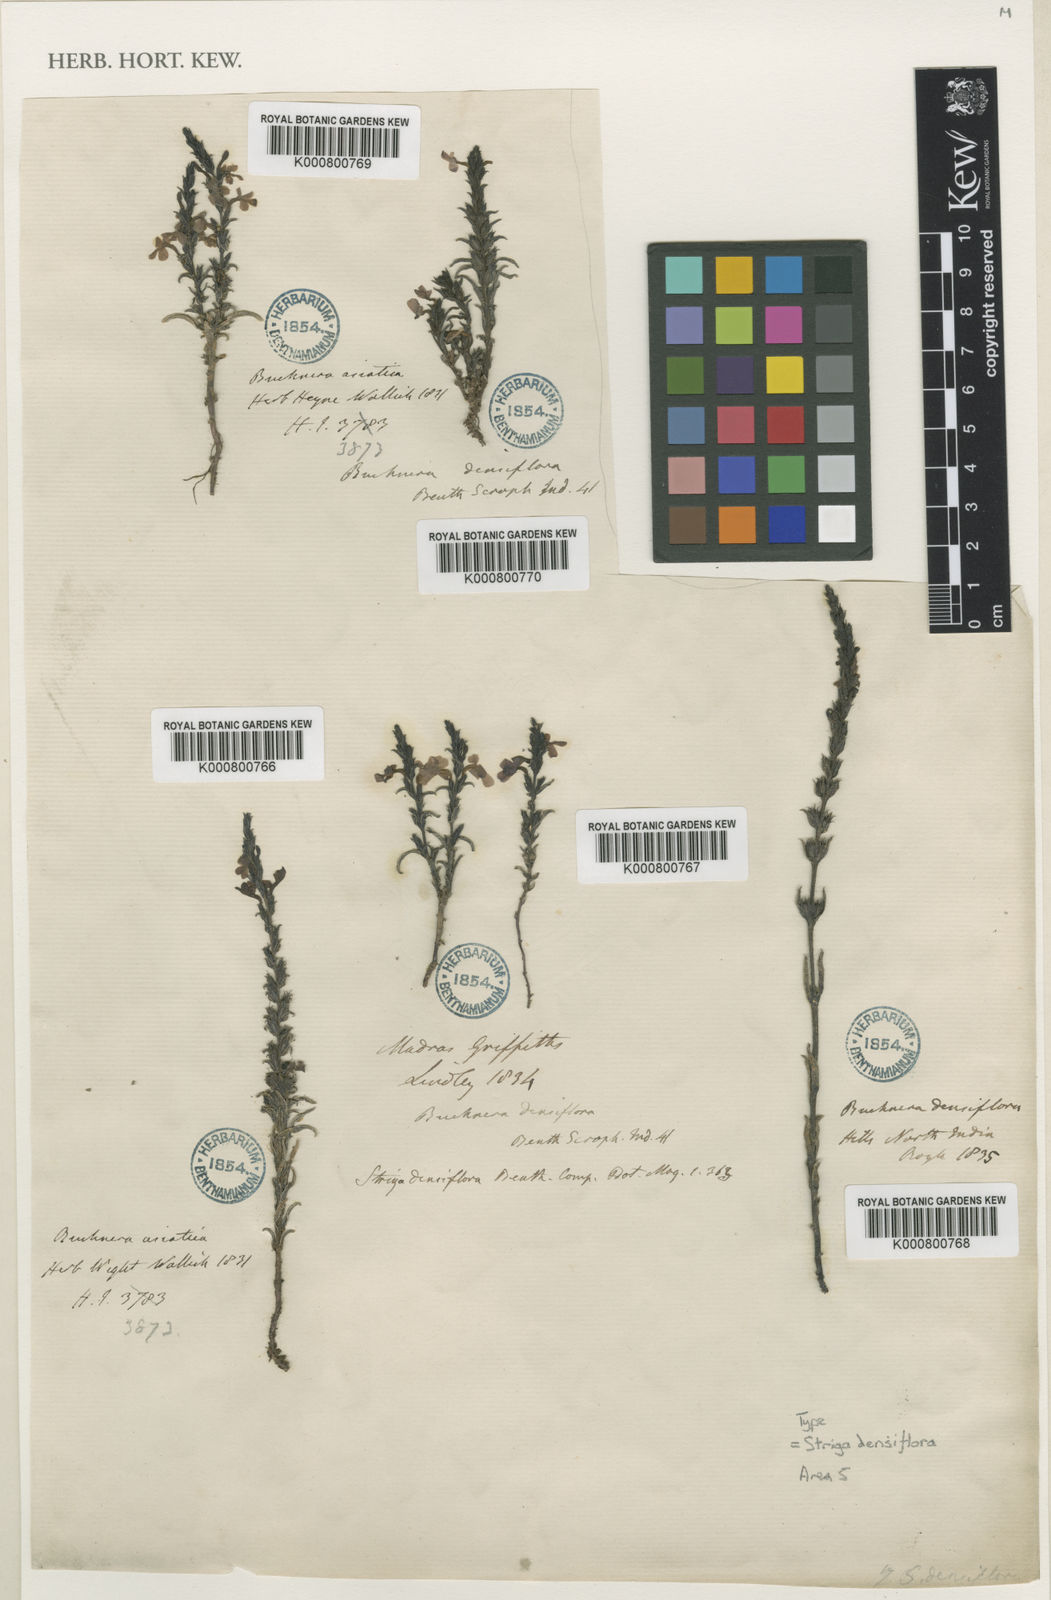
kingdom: Plantae
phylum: Tracheophyta
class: Magnoliopsida
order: Lamiales
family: Orobanchaceae
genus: Striga
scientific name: Striga densiflora
